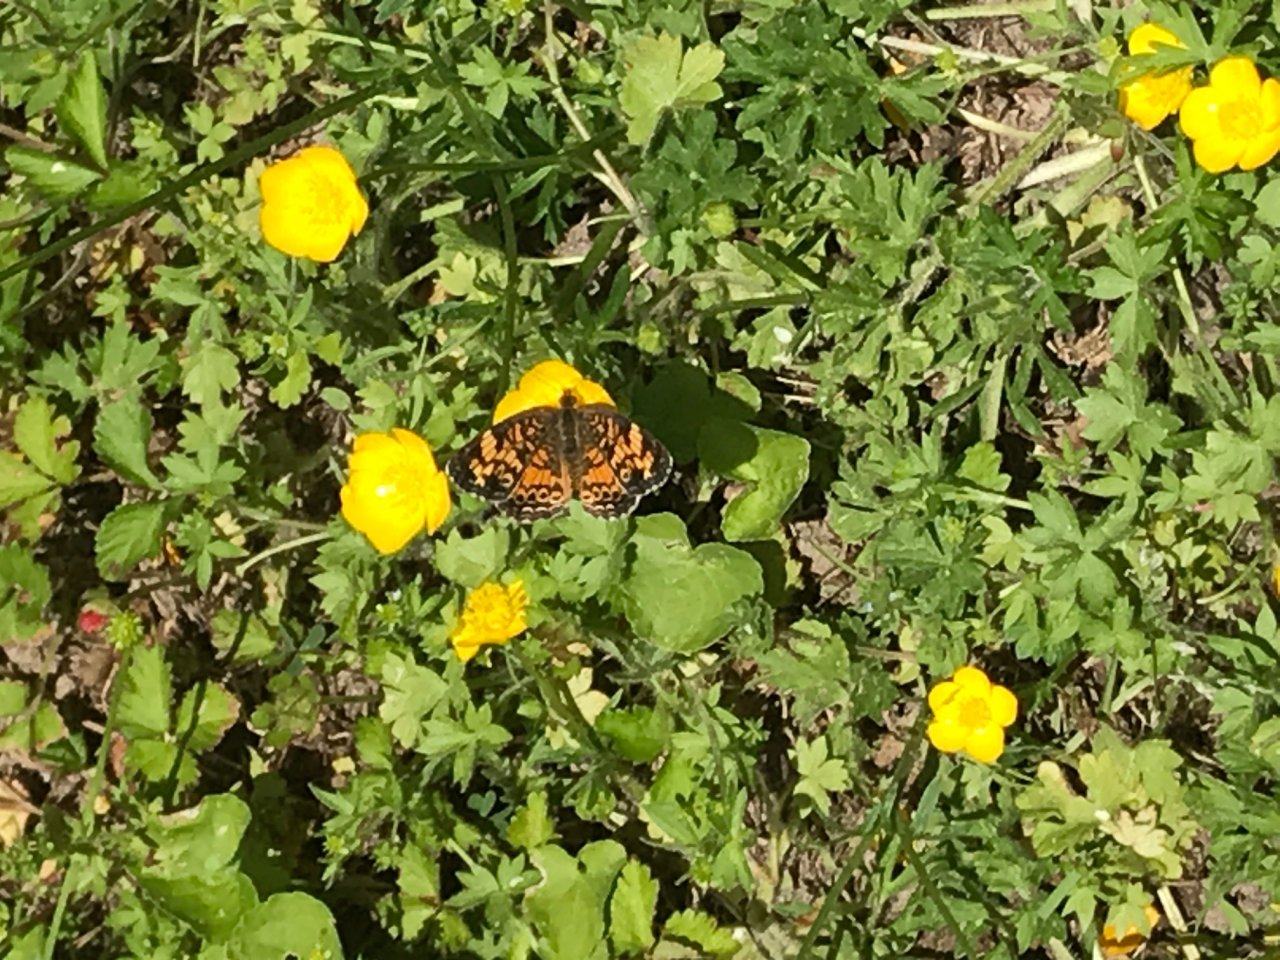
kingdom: Animalia
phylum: Arthropoda
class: Insecta
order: Lepidoptera
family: Nymphalidae
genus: Phyciodes
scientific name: Phyciodes tharos
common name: Pearl Crescent
